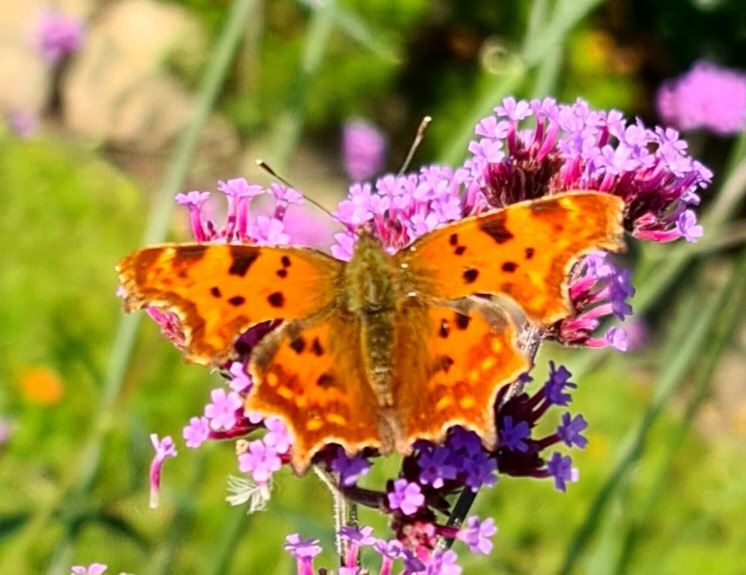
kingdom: Animalia
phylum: Arthropoda
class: Insecta
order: Lepidoptera
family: Nymphalidae
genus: Polygonia
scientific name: Polygonia c-album
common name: Det hvide C
